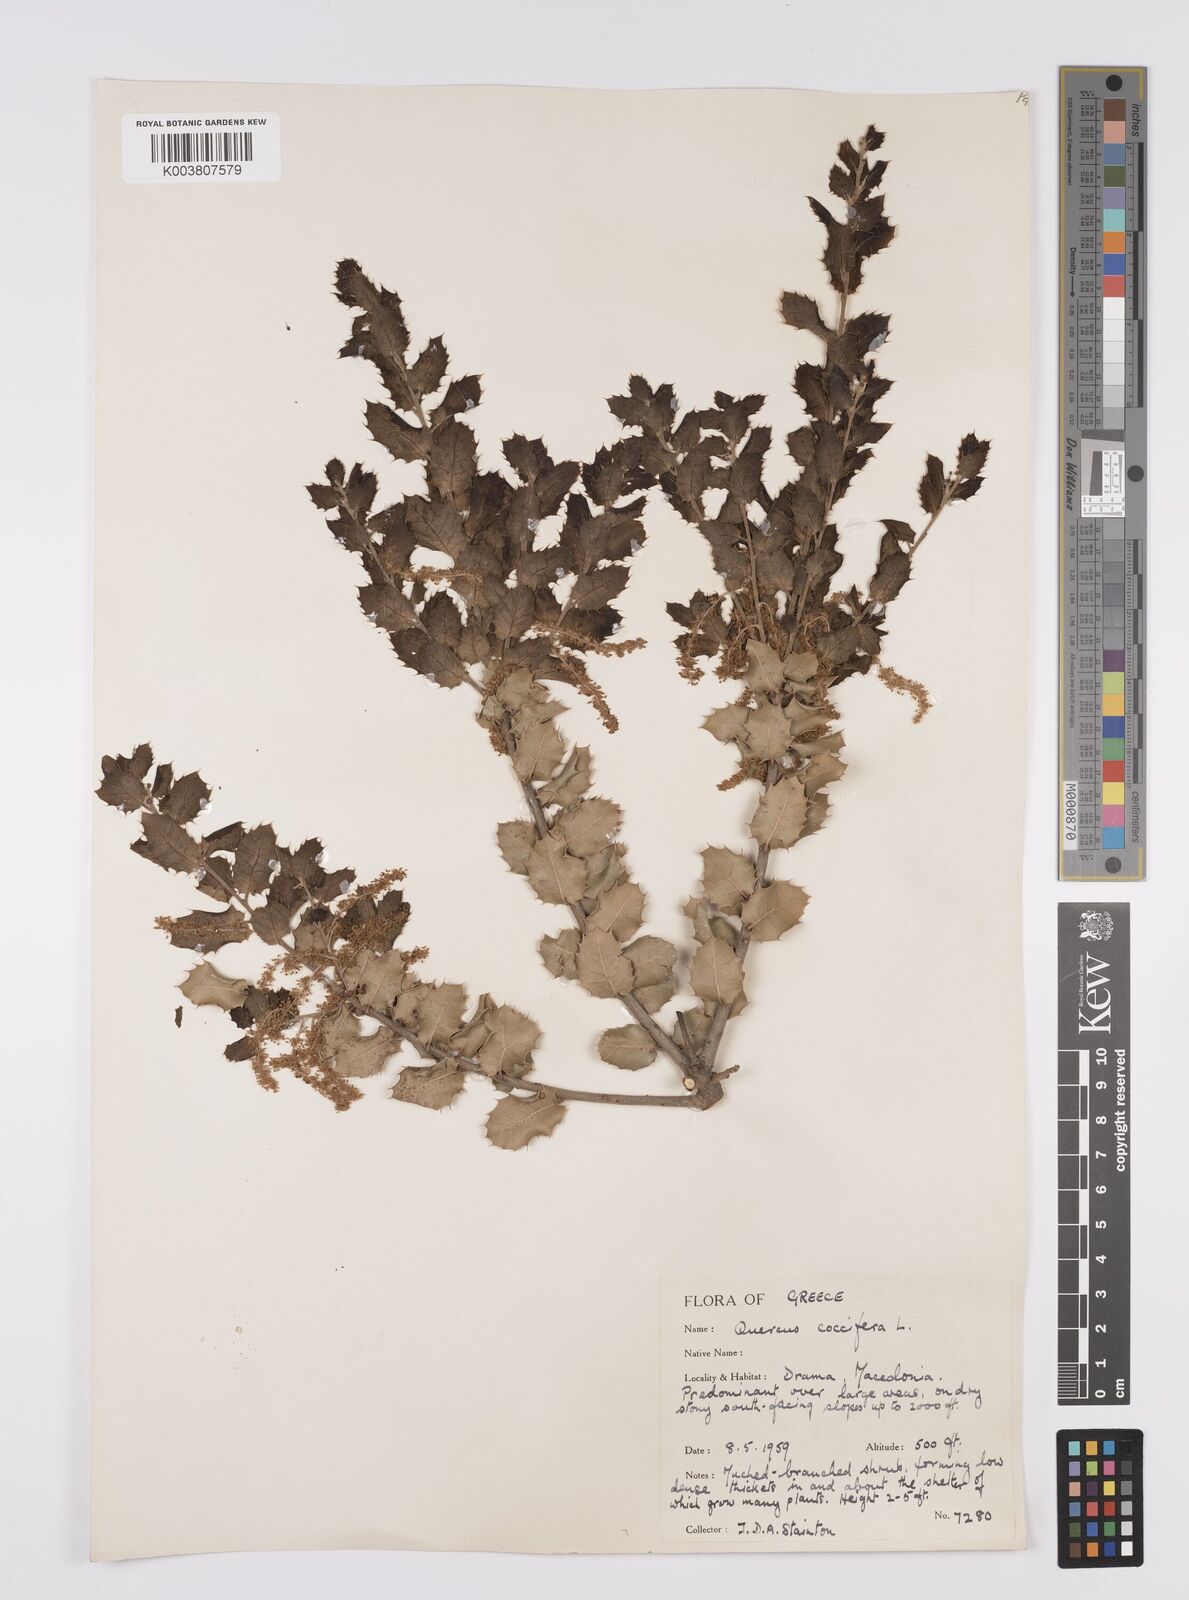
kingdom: Plantae
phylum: Tracheophyta
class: Magnoliopsida
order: Fagales
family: Fagaceae
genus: Quercus
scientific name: Quercus coccifera
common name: Kermes oak
